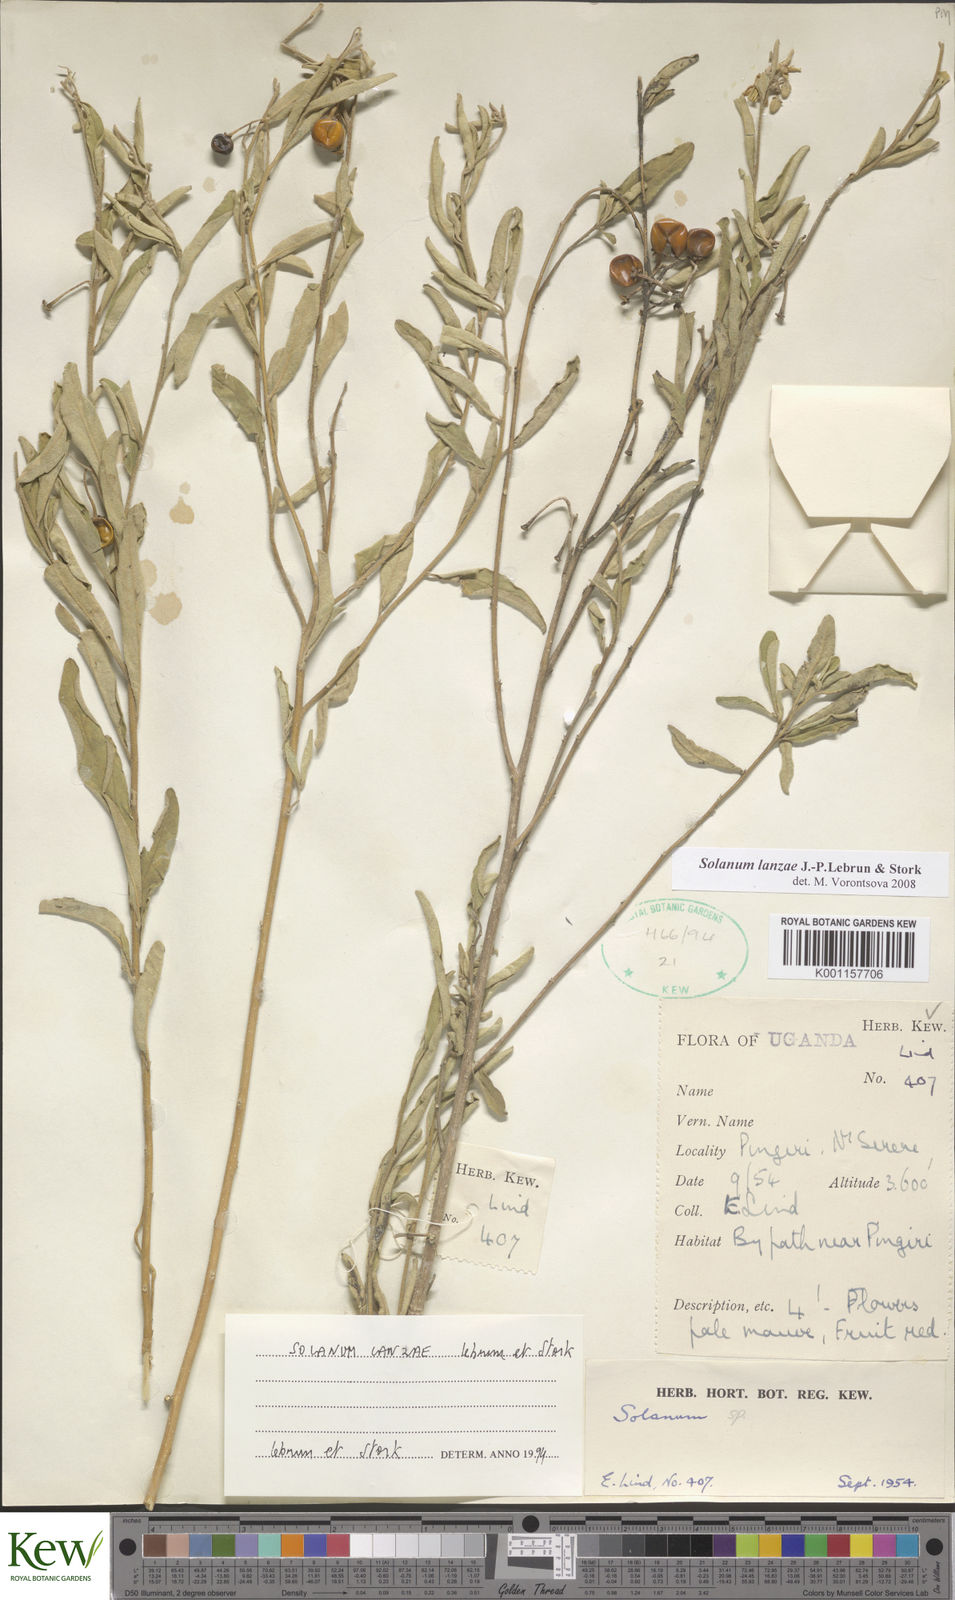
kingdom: Plantae
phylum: Tracheophyta
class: Magnoliopsida
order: Solanales
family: Solanaceae
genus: Solanum
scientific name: Solanum lanzae
